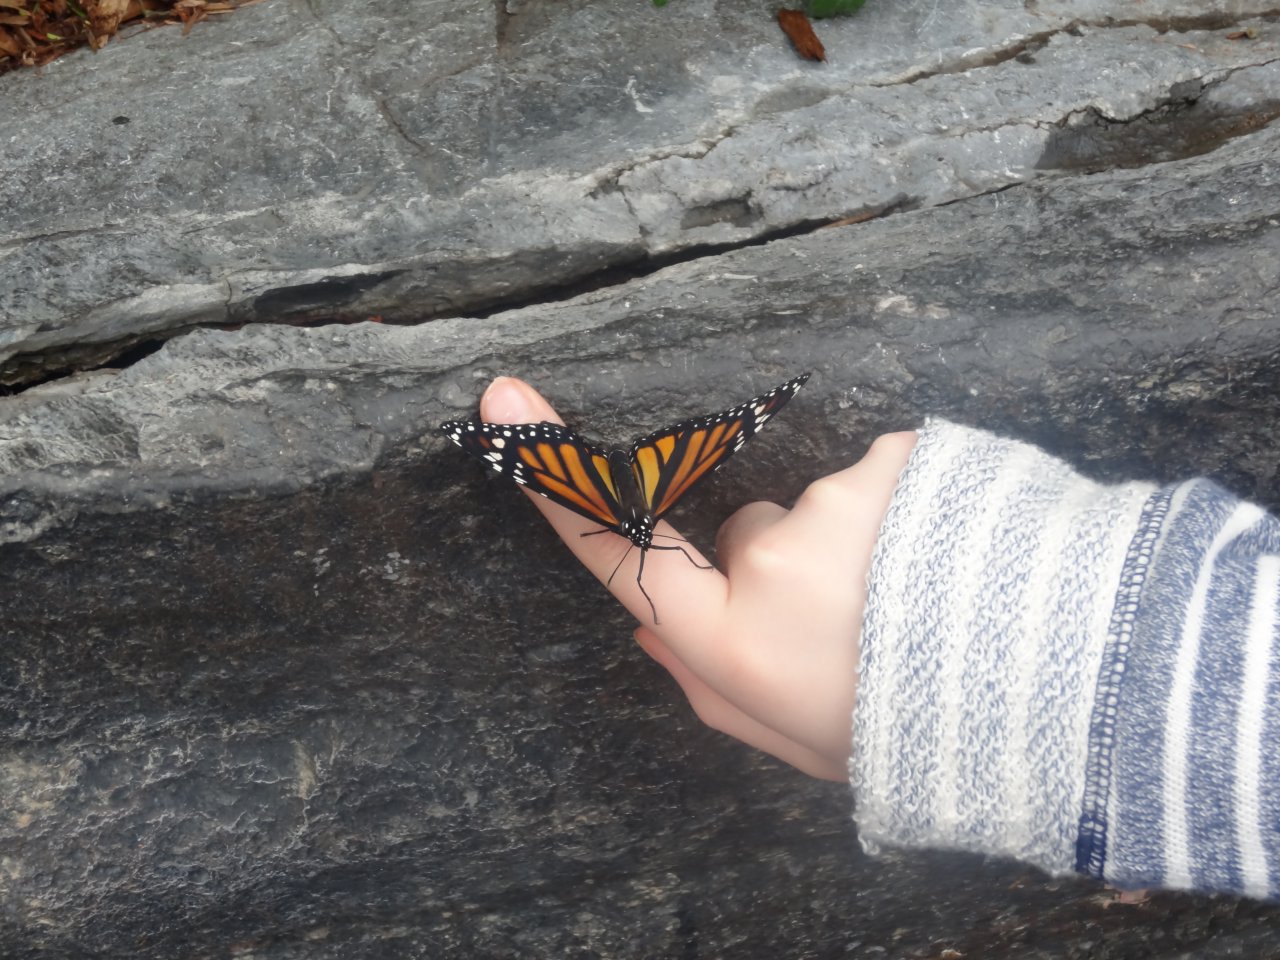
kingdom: Animalia
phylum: Arthropoda
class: Insecta
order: Lepidoptera
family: Nymphalidae
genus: Danaus
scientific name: Danaus plexippus
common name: Monarch
